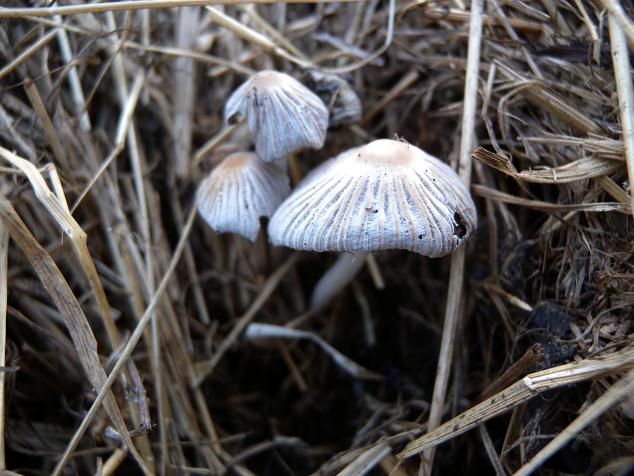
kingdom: Fungi
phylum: Basidiomycota
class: Agaricomycetes
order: Agaricales
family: Psathyrellaceae
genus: Tulosesus
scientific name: Tulosesus marculentus
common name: hexagonsporet blækhat
